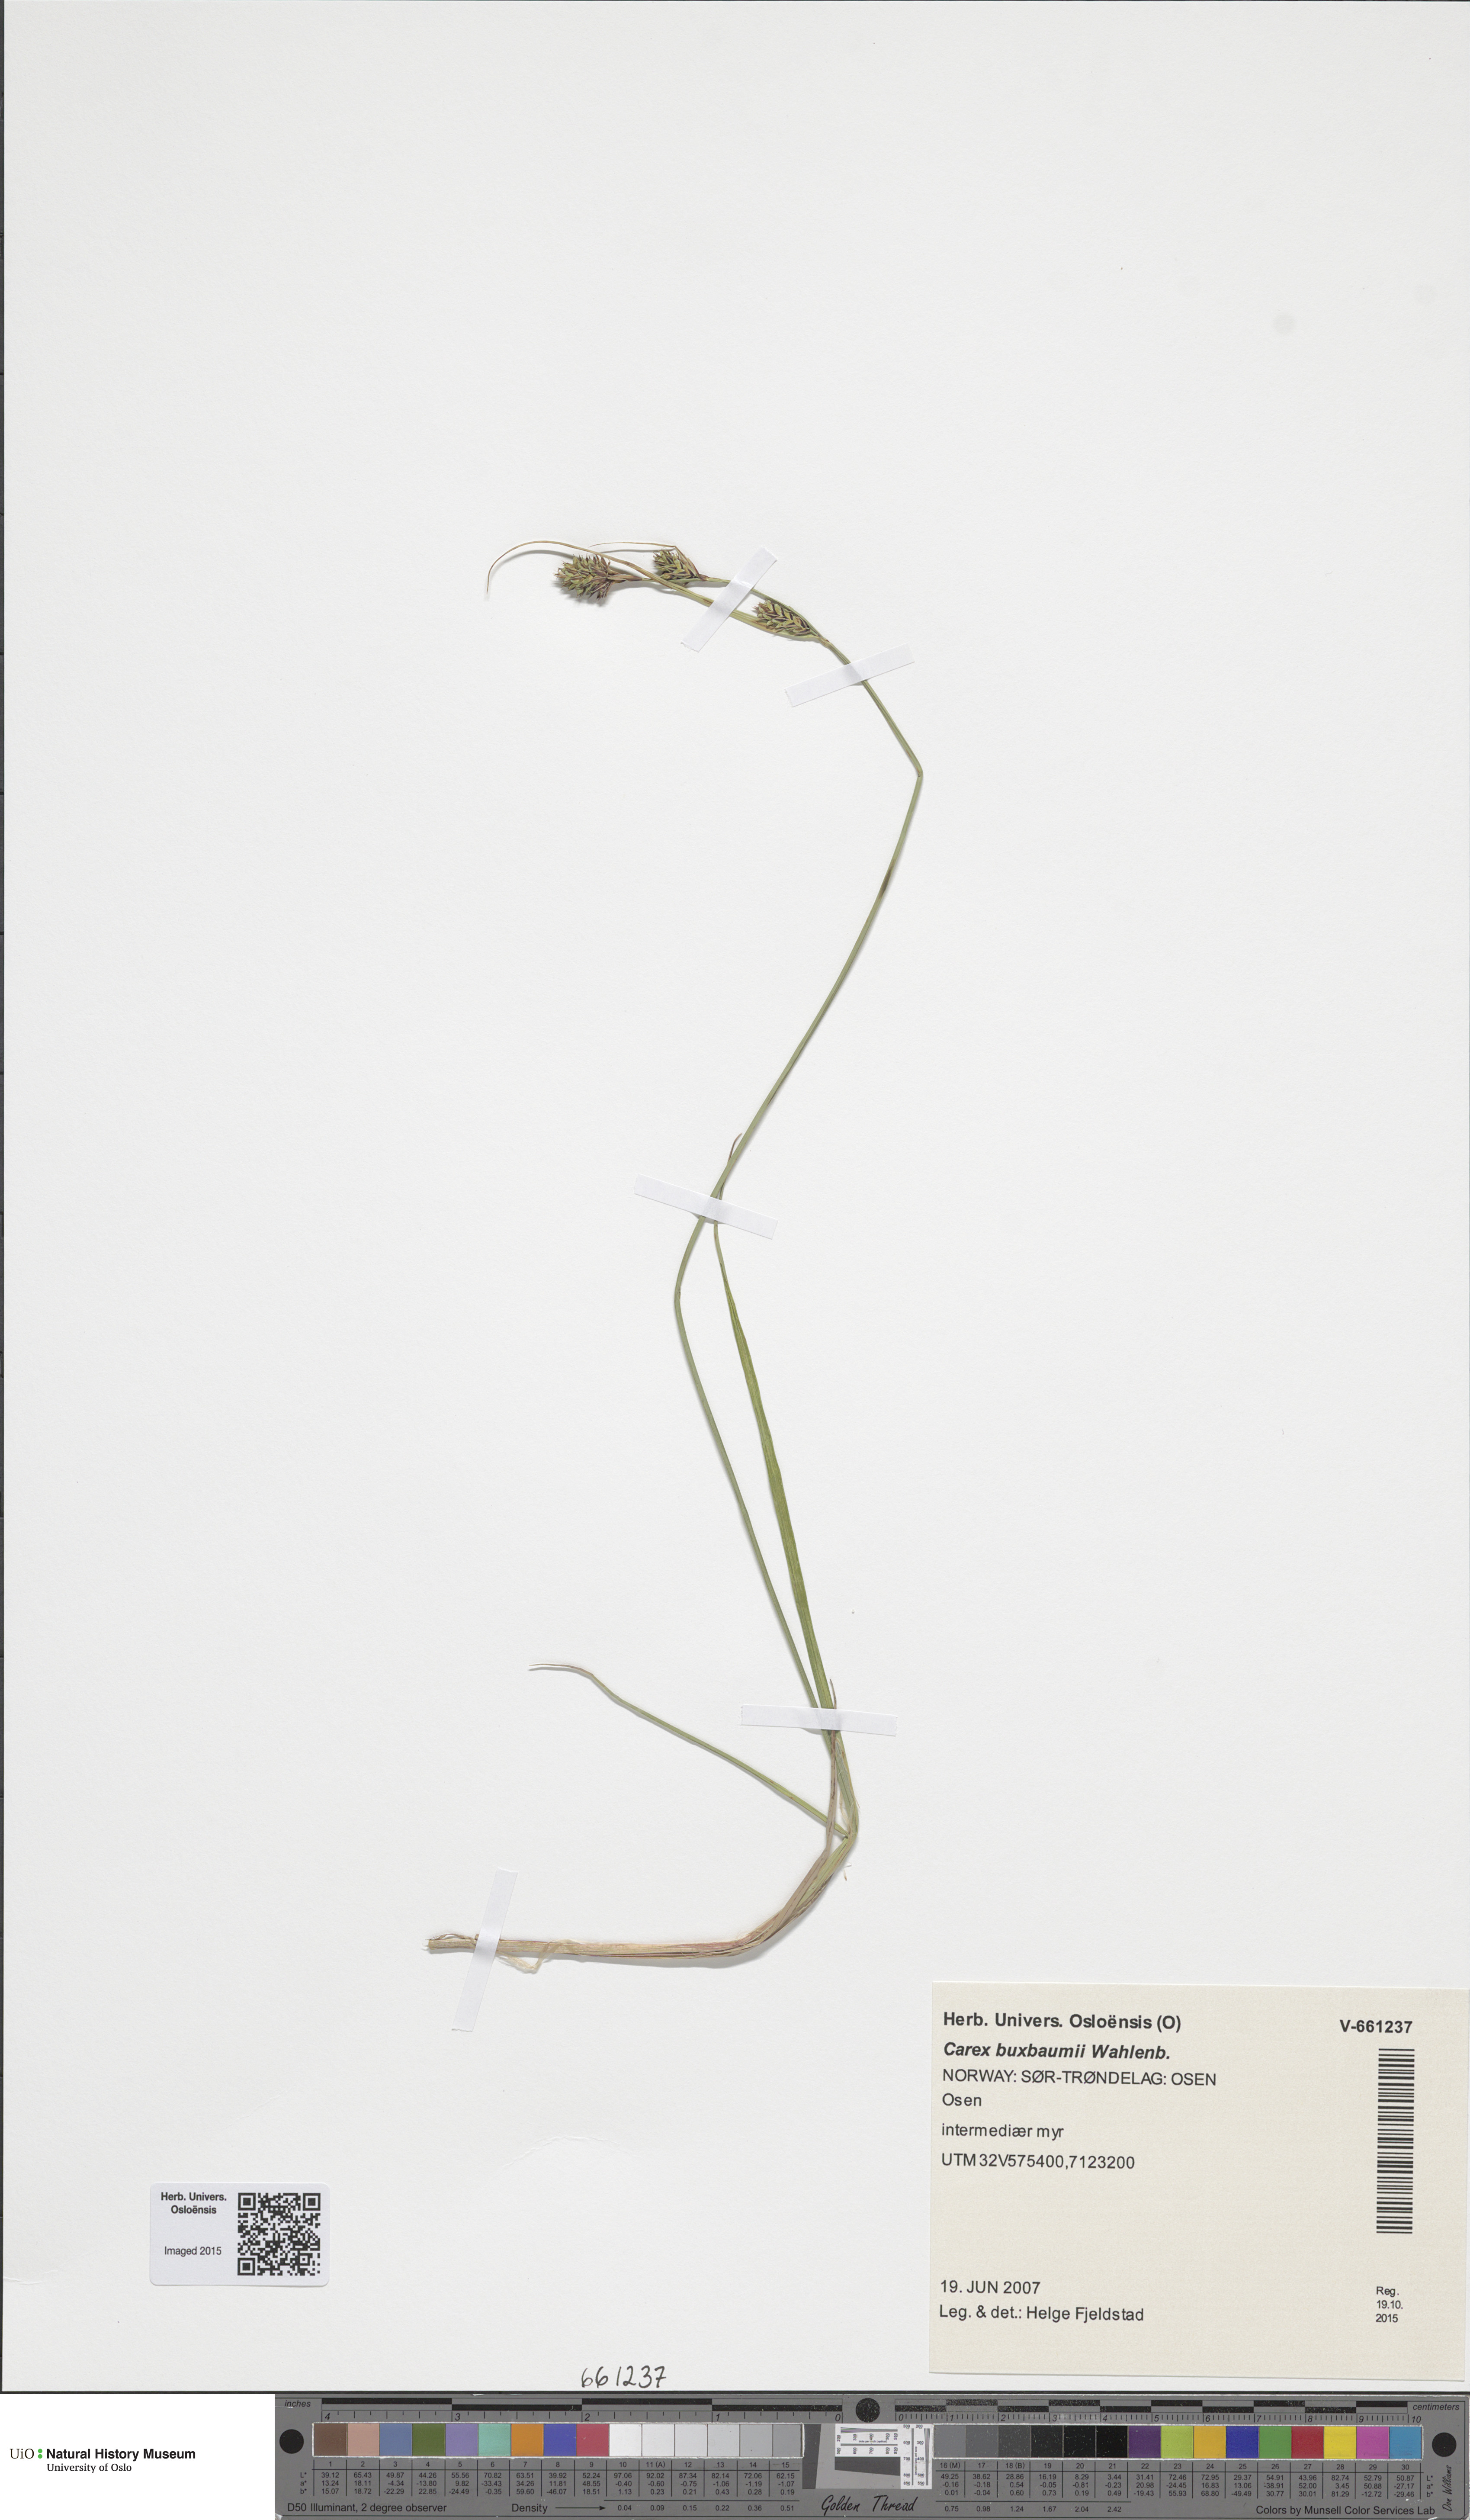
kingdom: Plantae
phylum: Tracheophyta
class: Liliopsida
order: Poales
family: Cyperaceae
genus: Carex
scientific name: Carex buxbaumii
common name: Club sedge
